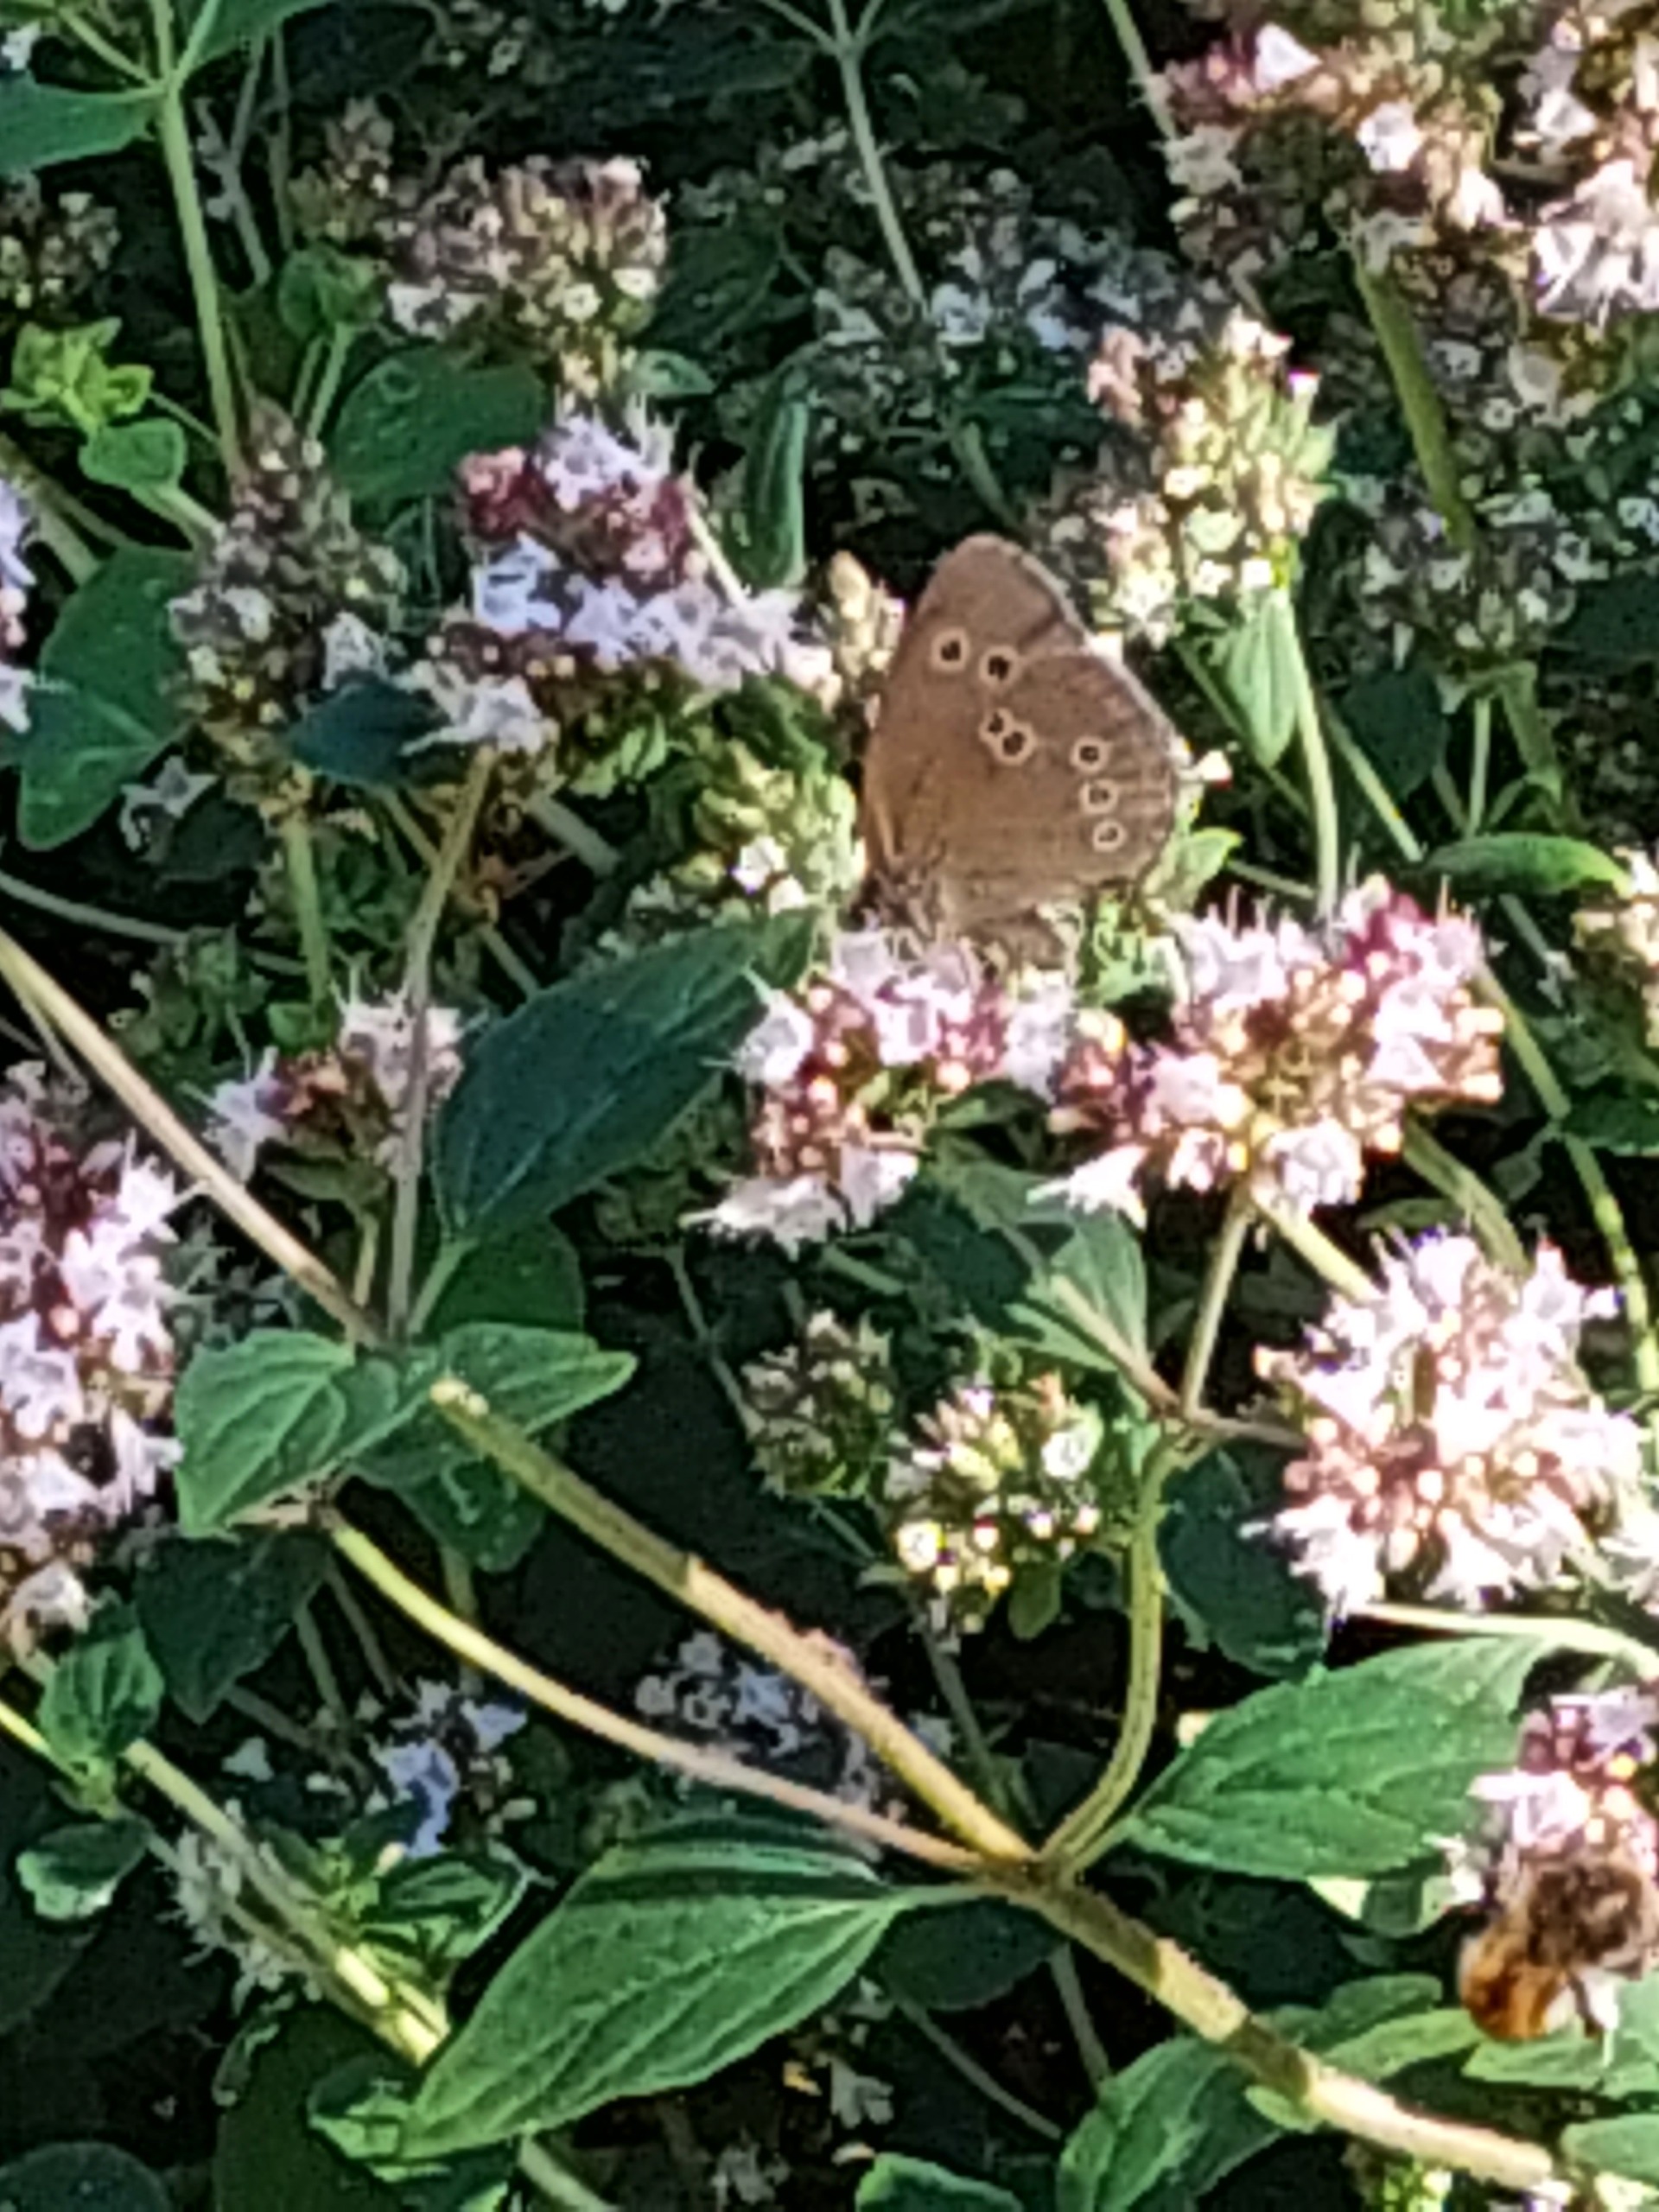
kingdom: Animalia
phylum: Arthropoda
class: Insecta
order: Lepidoptera
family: Nymphalidae
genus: Aphantopus
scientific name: Aphantopus hyperantus
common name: Engrandøje
